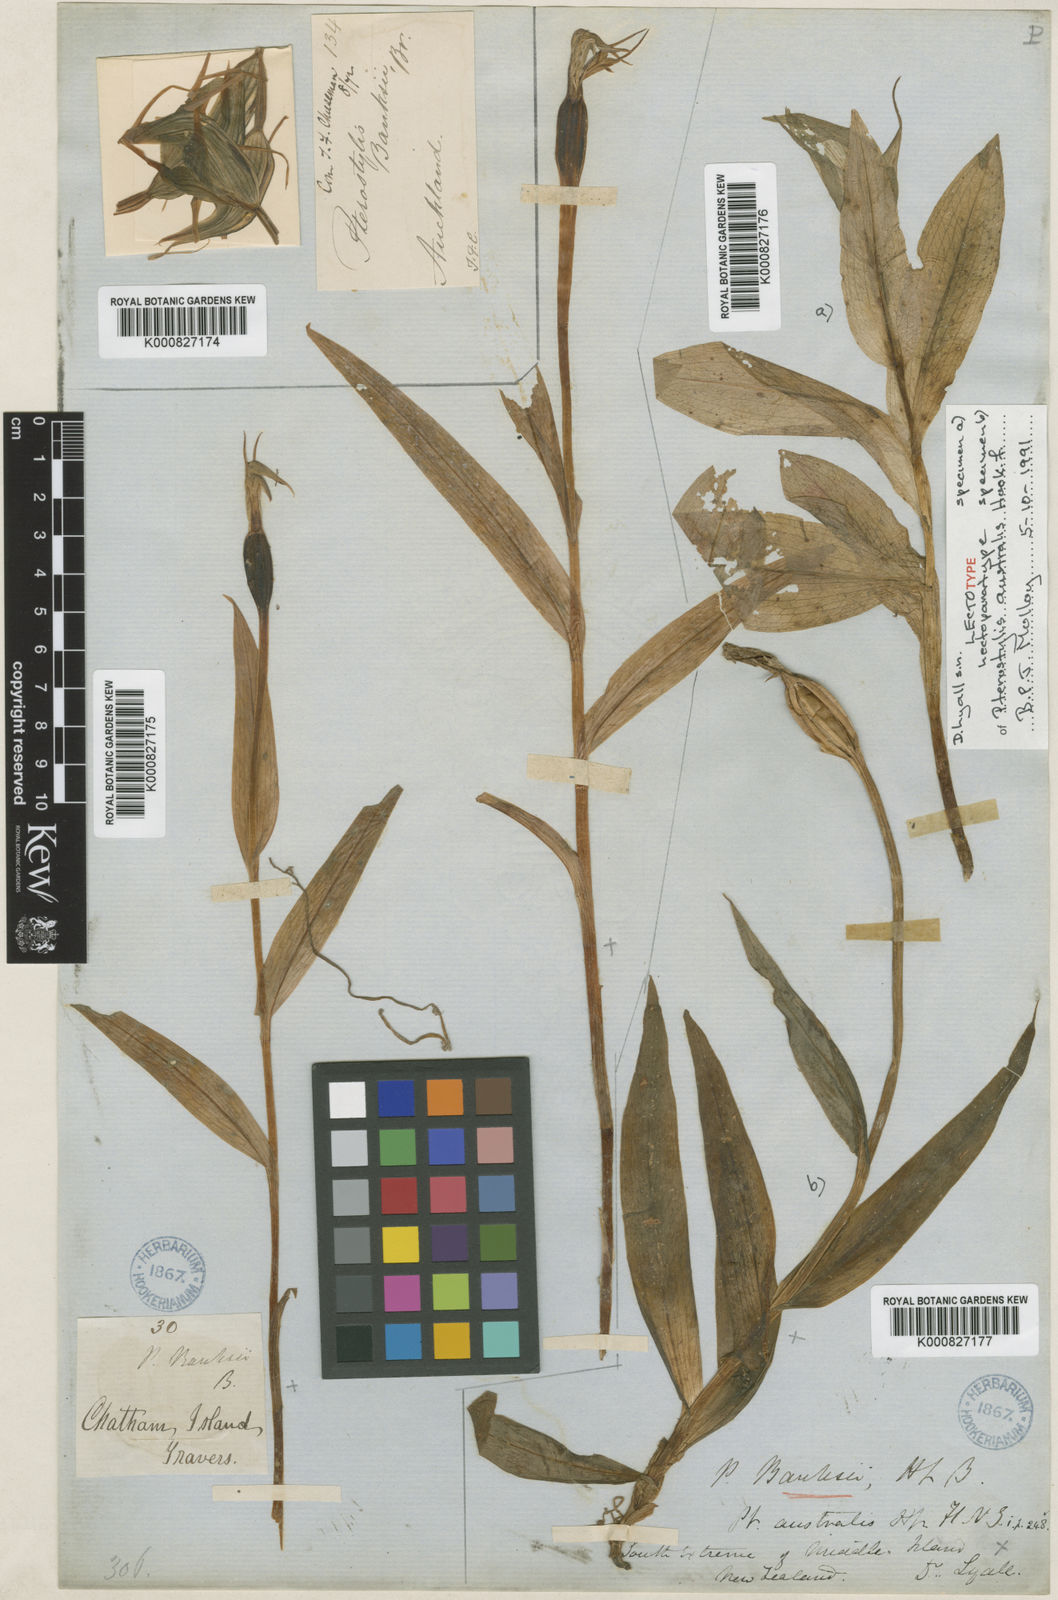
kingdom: Plantae
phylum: Tracheophyta
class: Liliopsida
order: Asparagales
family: Orchidaceae
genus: Pterostylis
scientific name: Pterostylis australis
